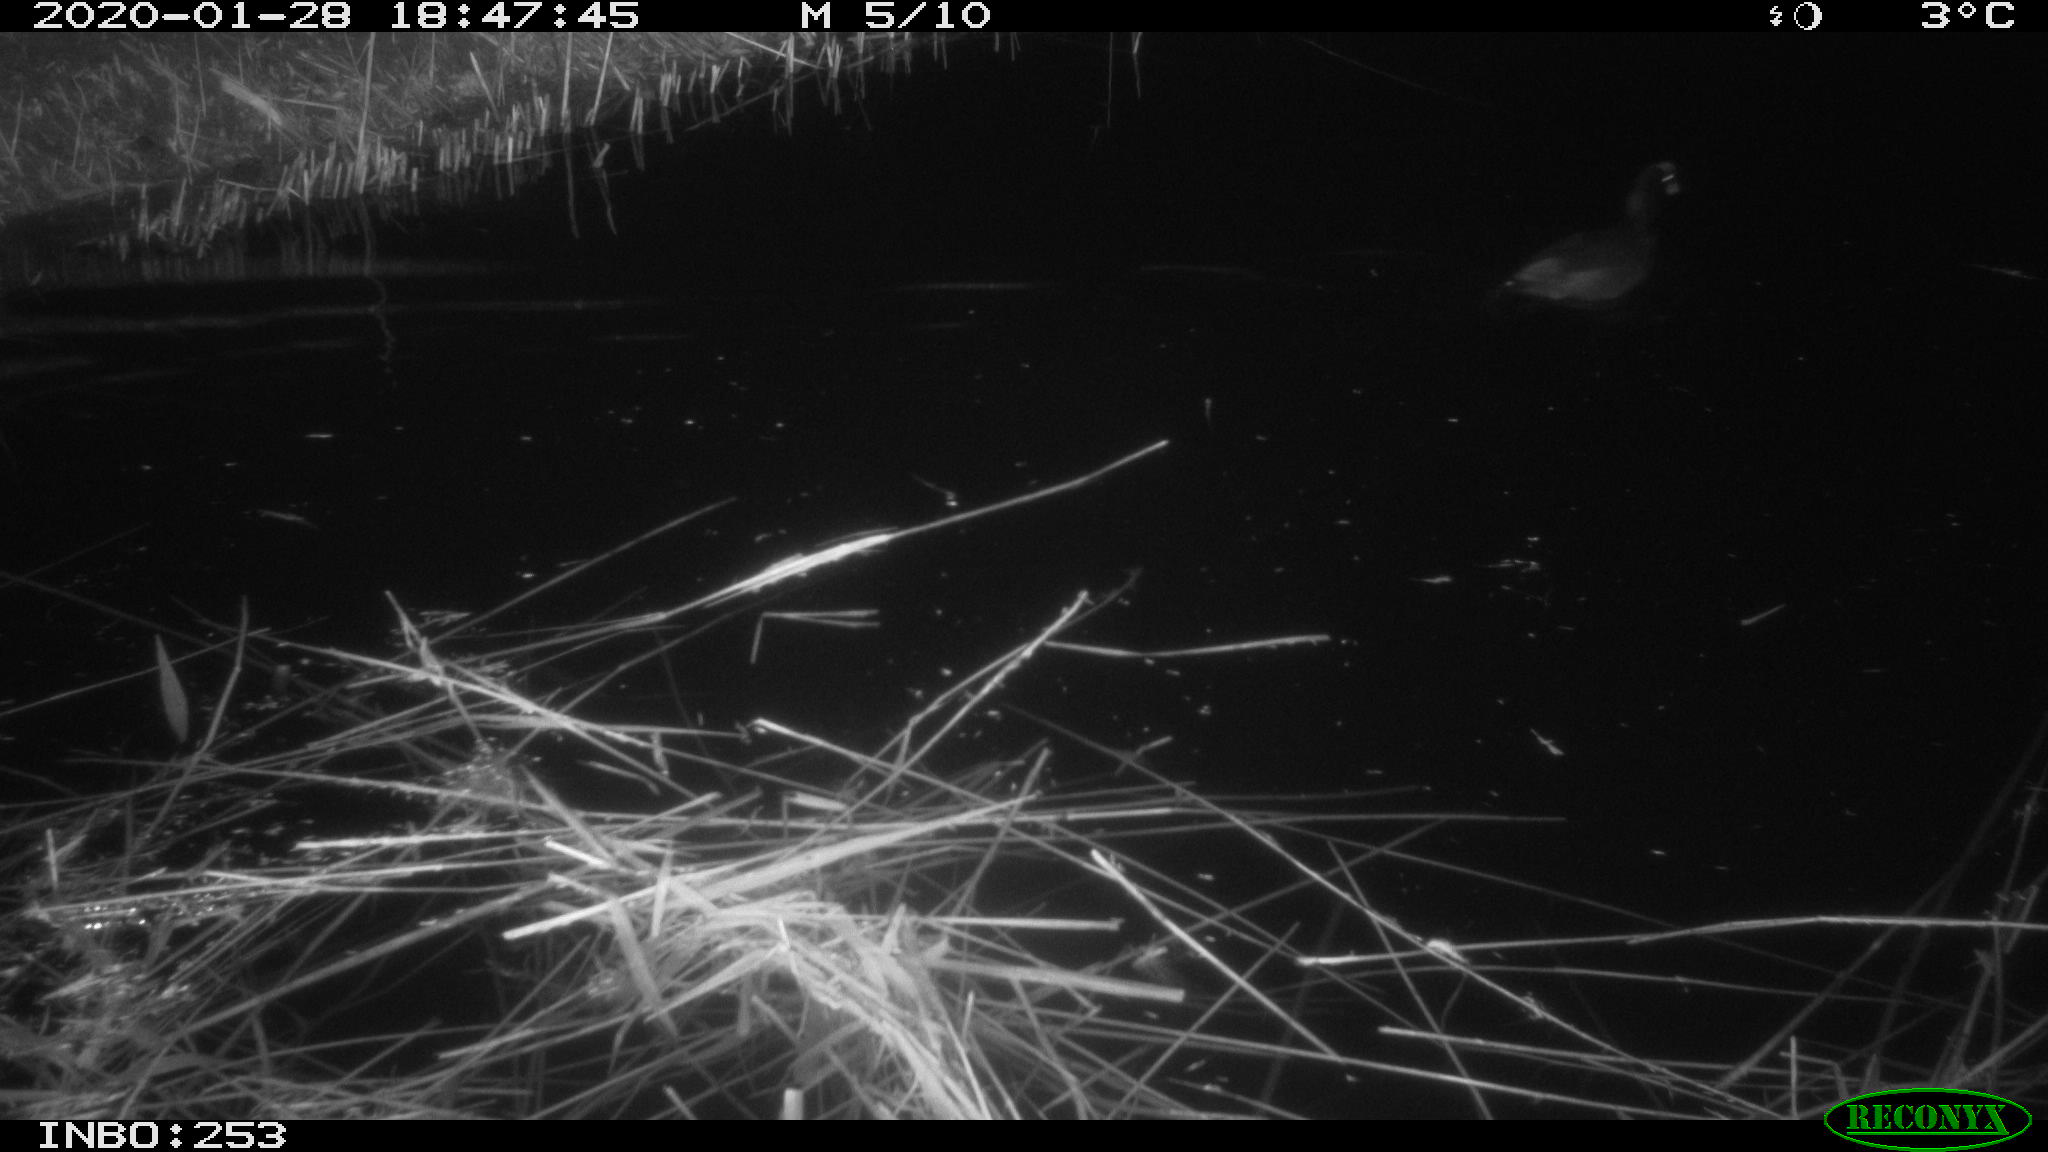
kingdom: Animalia
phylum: Chordata
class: Aves
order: Gruiformes
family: Rallidae
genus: Fulica
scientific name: Fulica atra
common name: Eurasian coot
